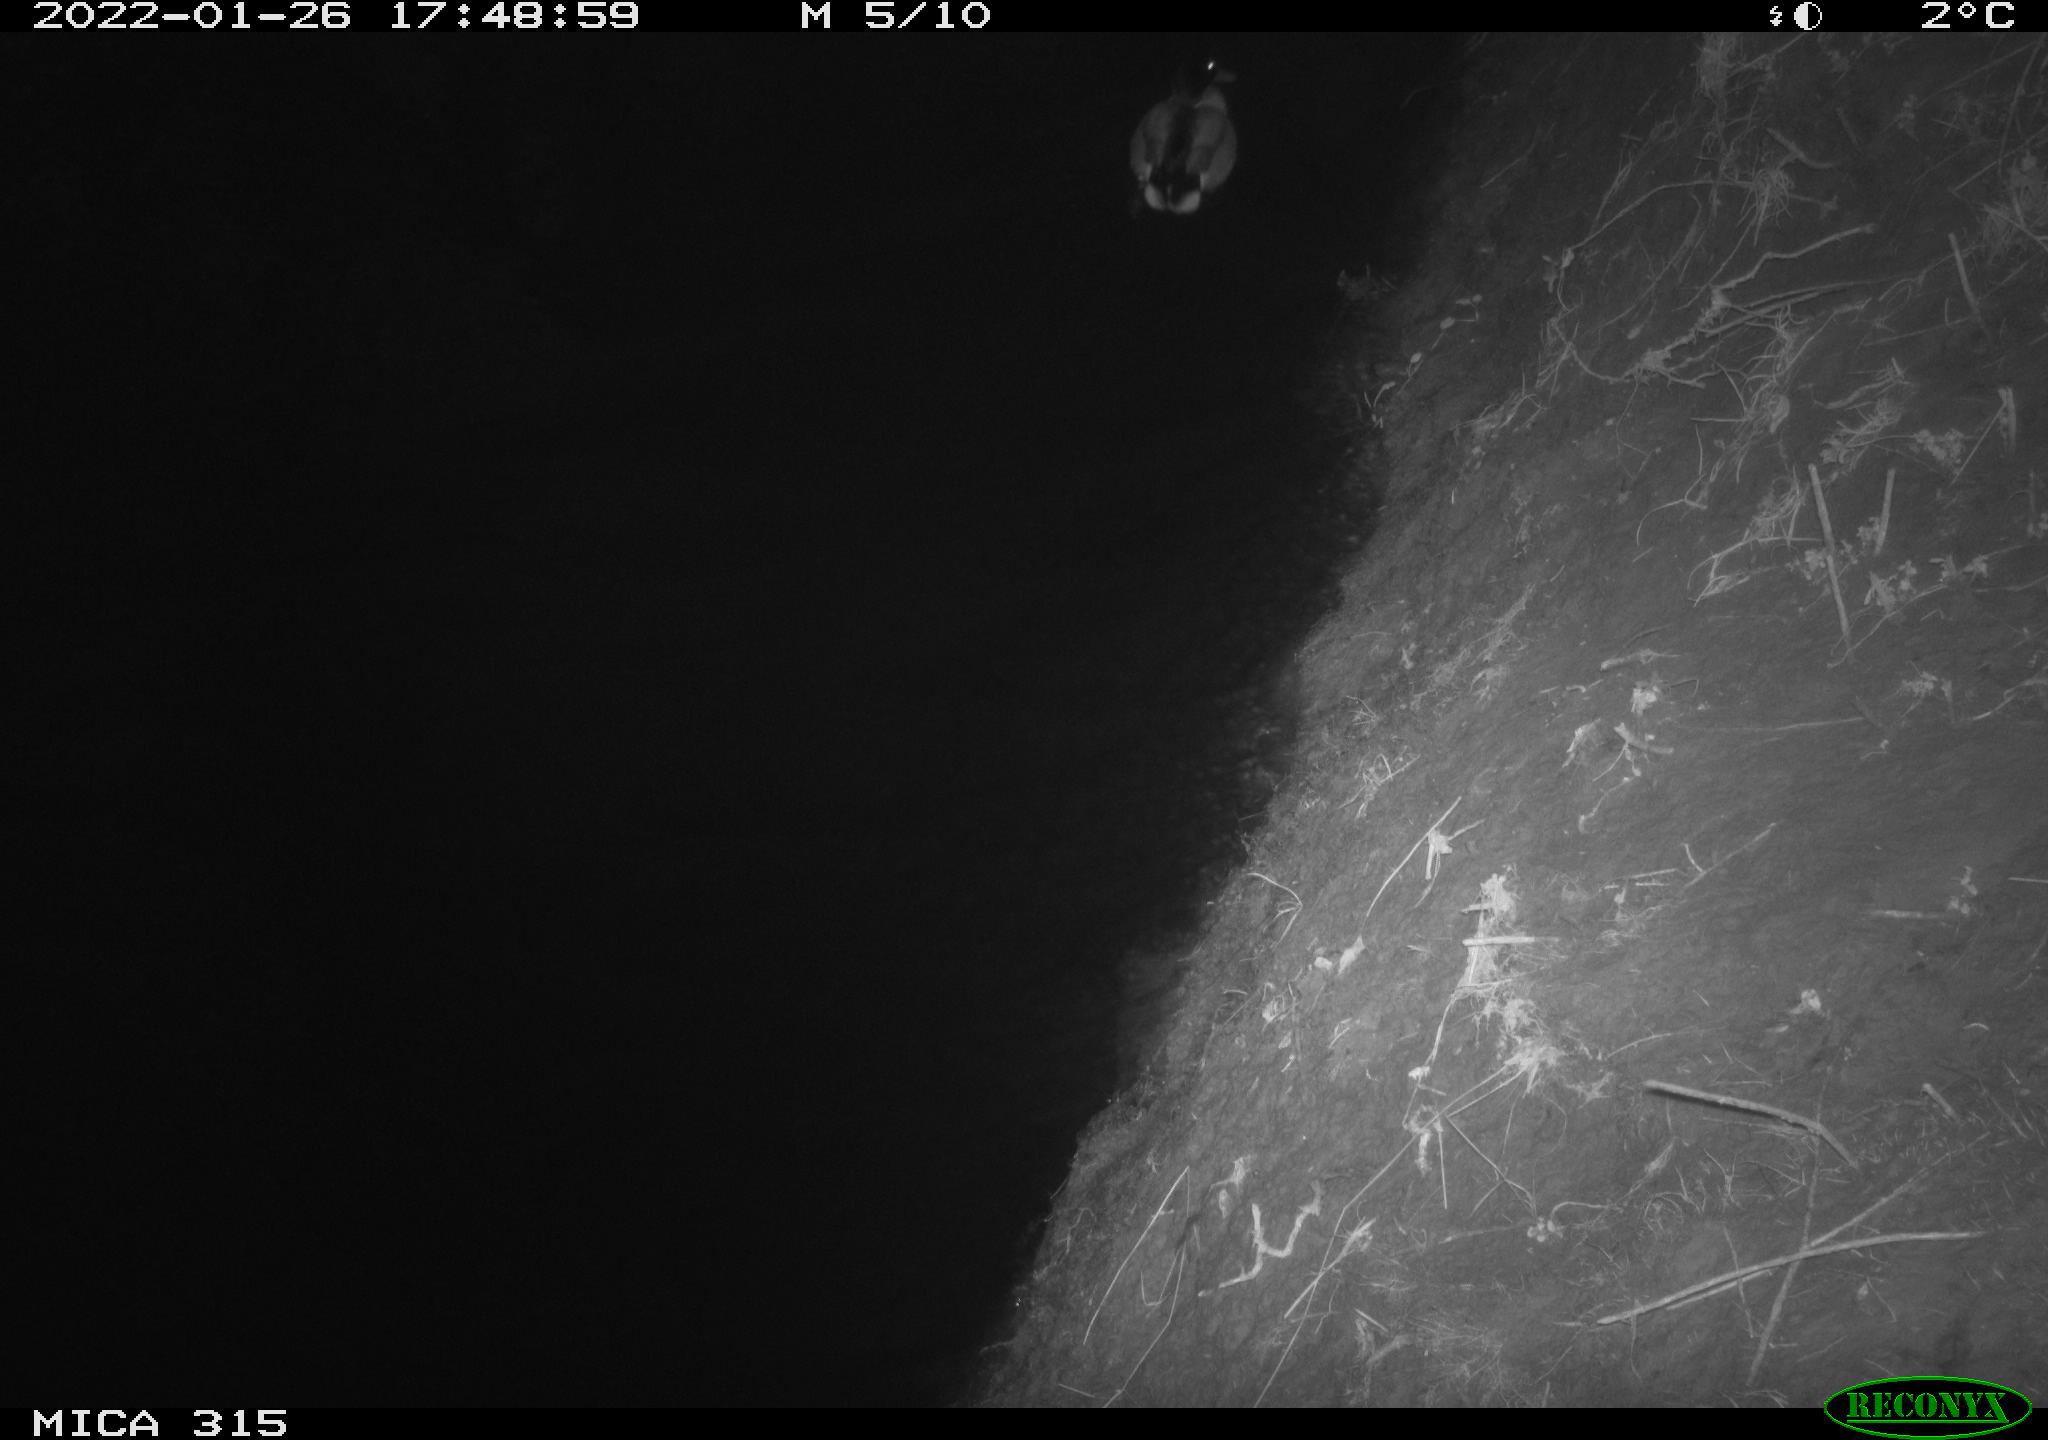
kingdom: Animalia
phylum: Chordata
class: Aves
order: Anseriformes
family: Anatidae
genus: Anas
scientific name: Anas
